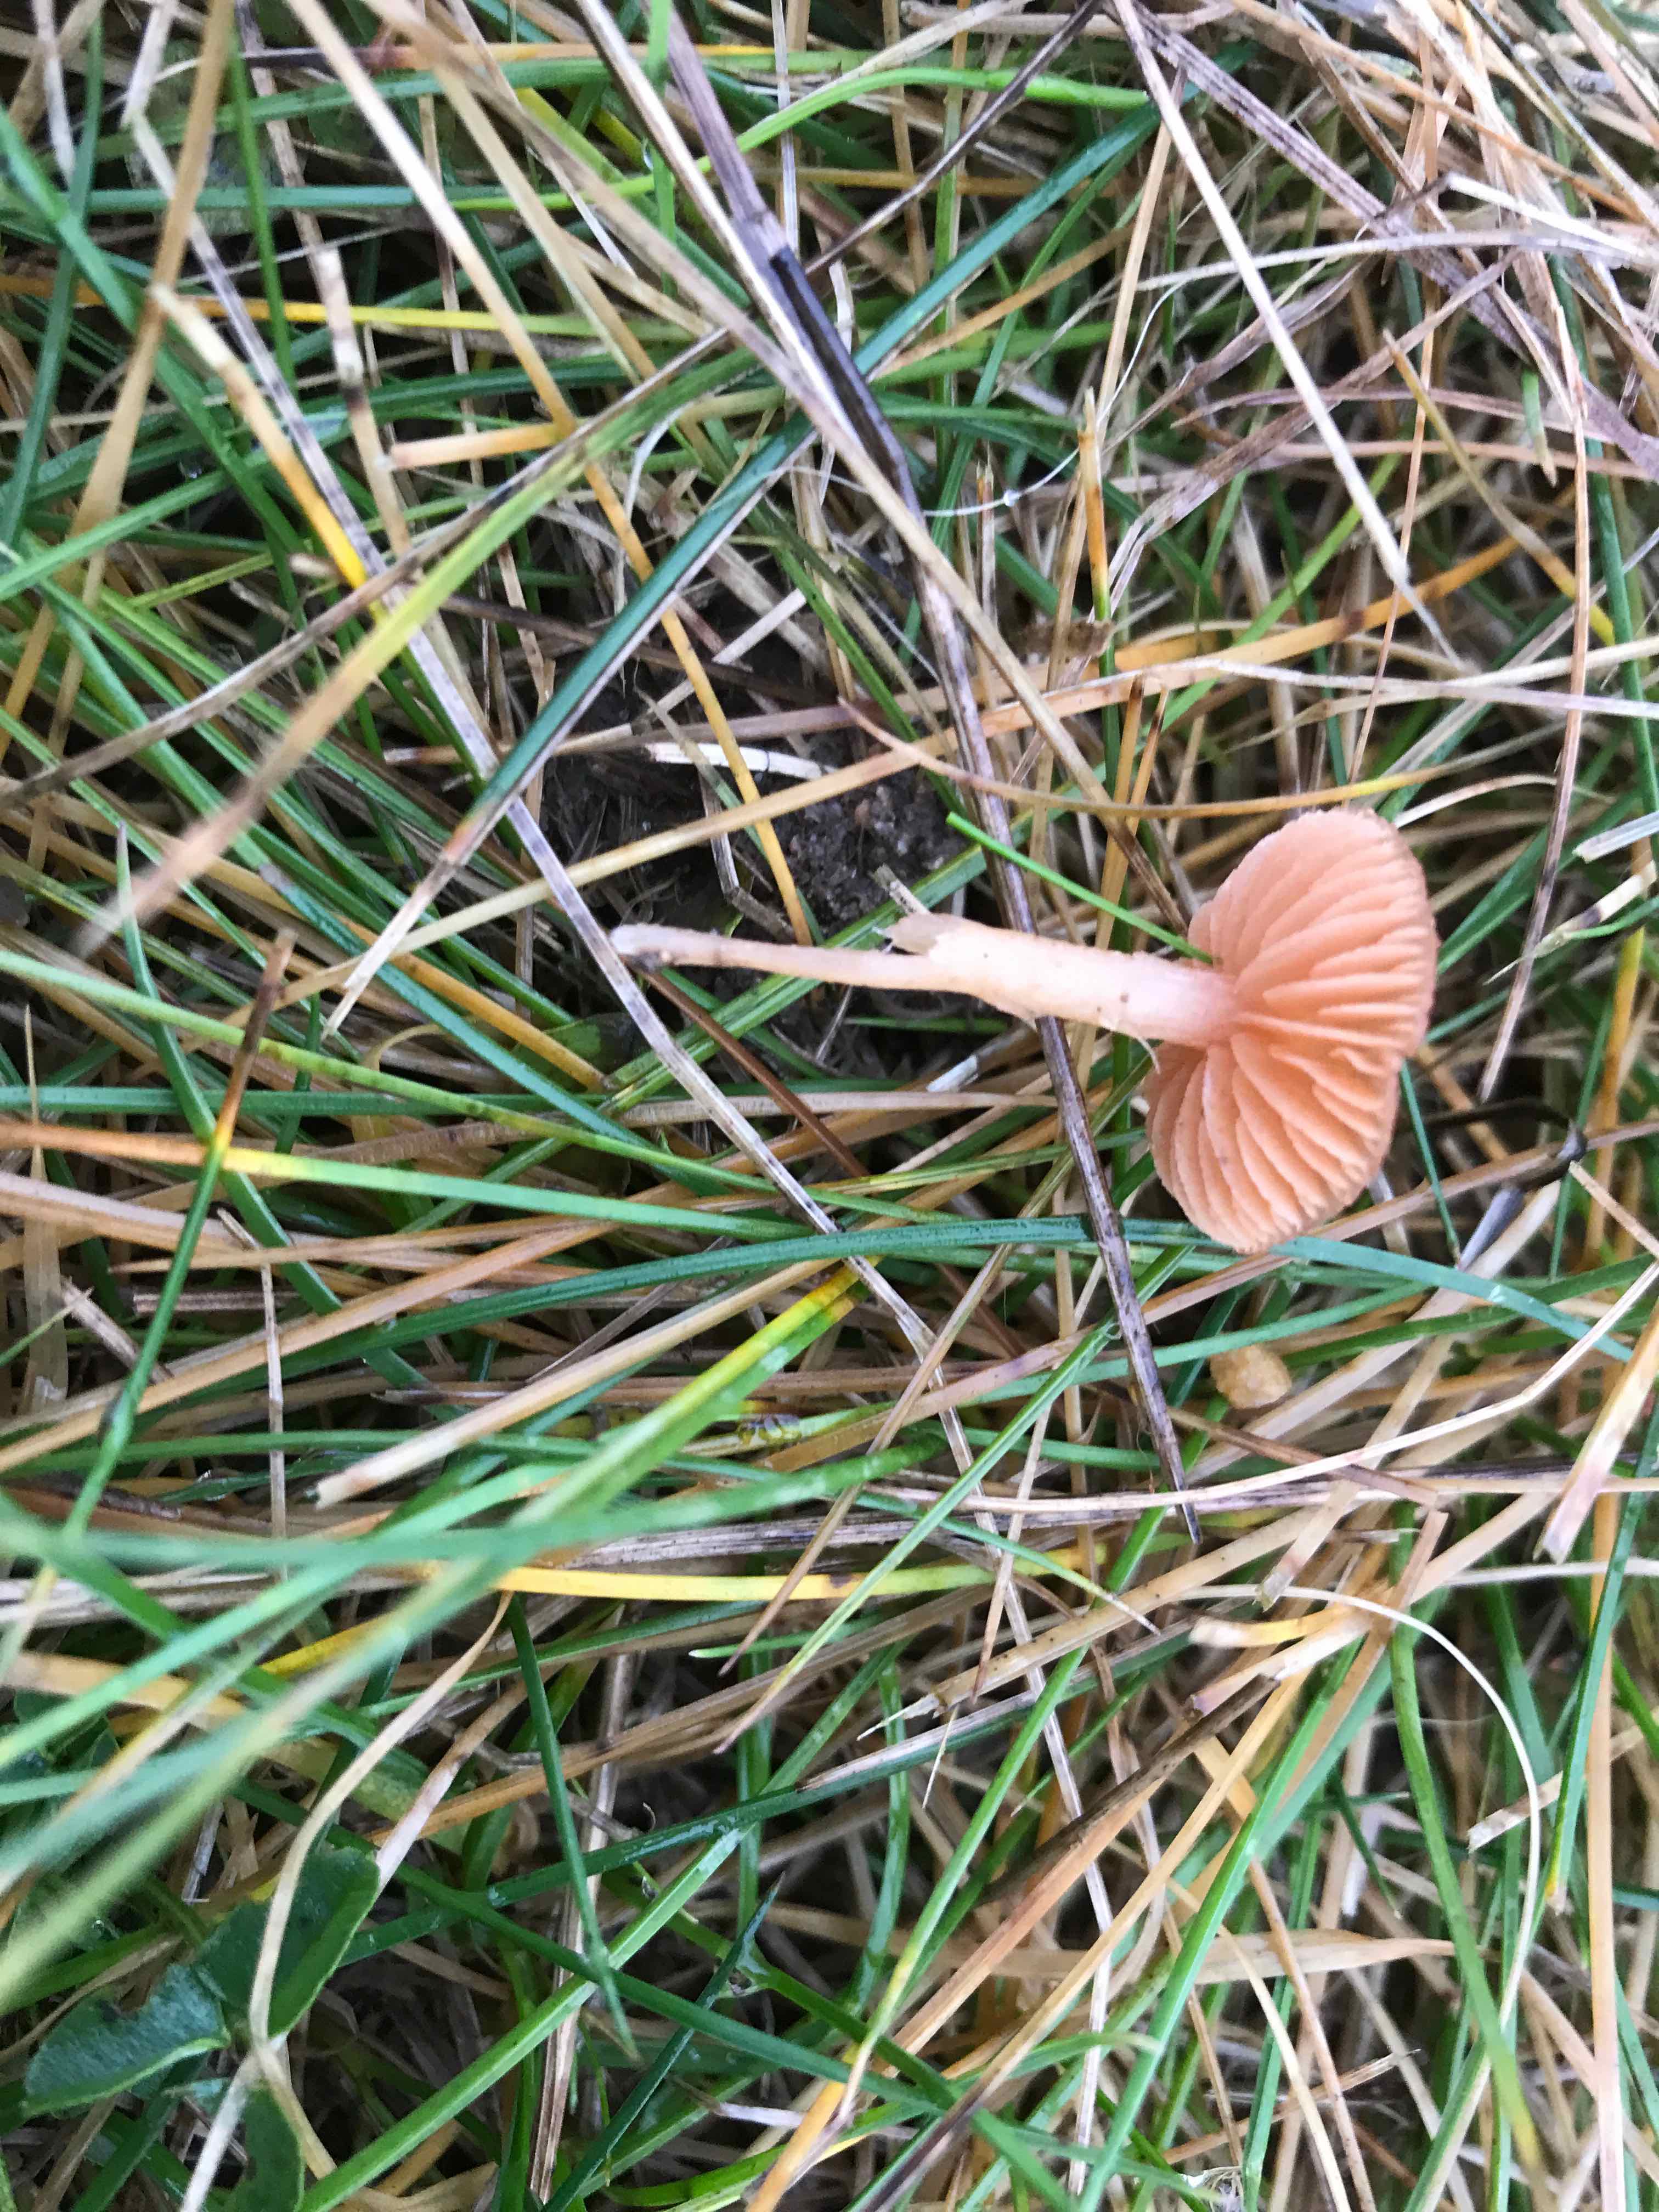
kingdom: Fungi
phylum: Basidiomycota
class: Agaricomycetes
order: Agaricales
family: Tubariaceae
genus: Tubaria
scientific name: Tubaria furfuracea
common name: kliddet fnughat
